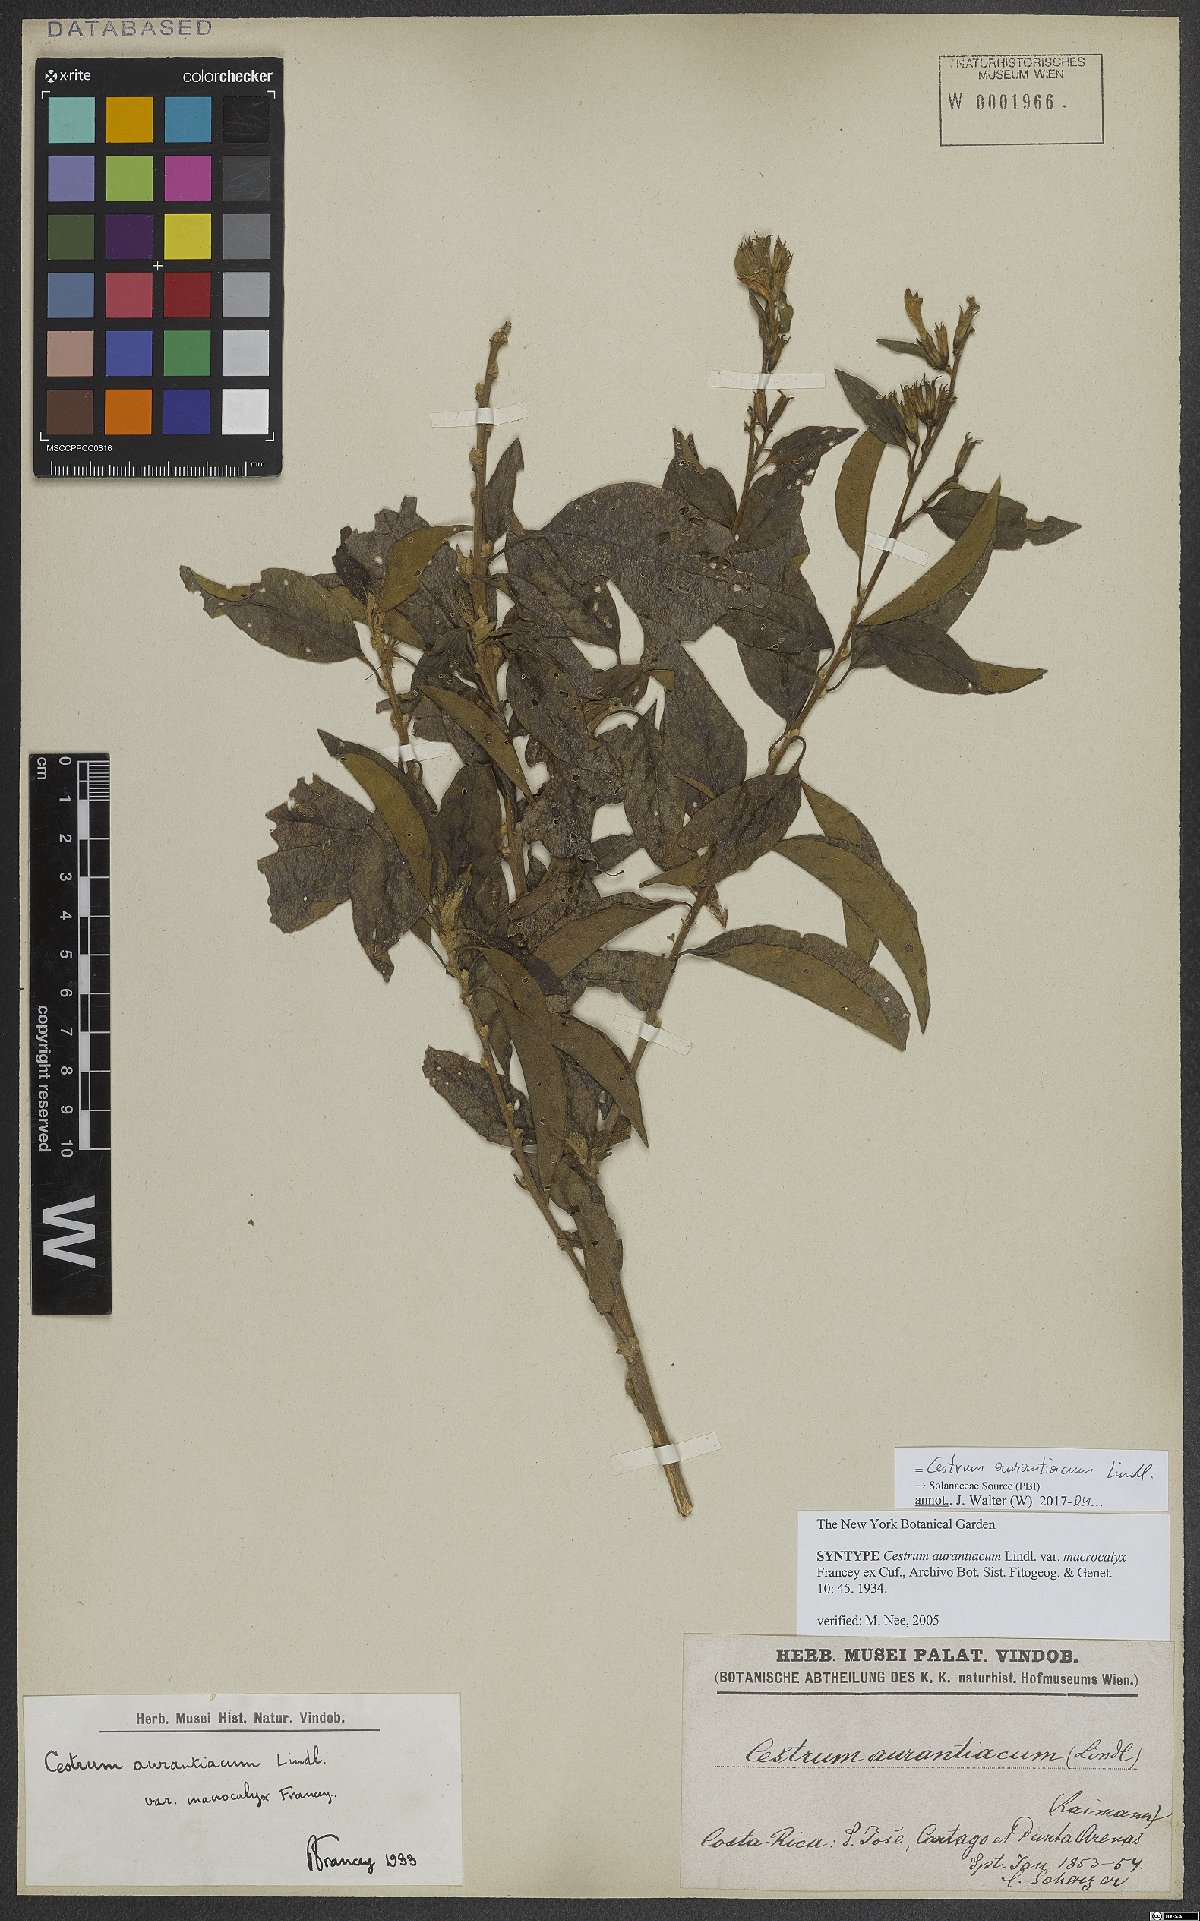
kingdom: Plantae
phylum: Tracheophyta
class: Magnoliopsida
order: Solanales
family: Solanaceae
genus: Cestrum
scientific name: Cestrum aurantiacum
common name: Orange cestrum
